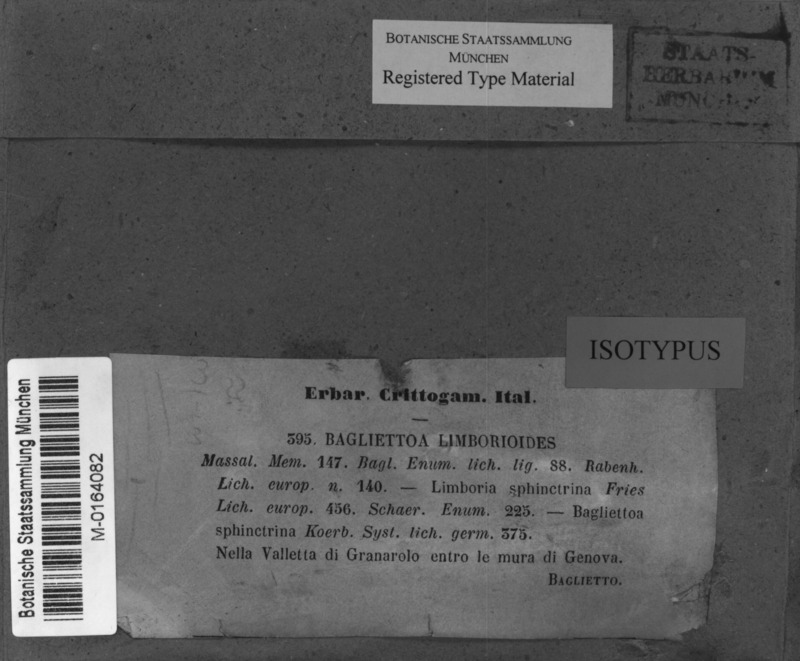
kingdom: Fungi
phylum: Ascomycota
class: Eurotiomycetes
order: Verrucariales
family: Verrucariaceae
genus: Bagliettoa
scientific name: Bagliettoa limborioides
